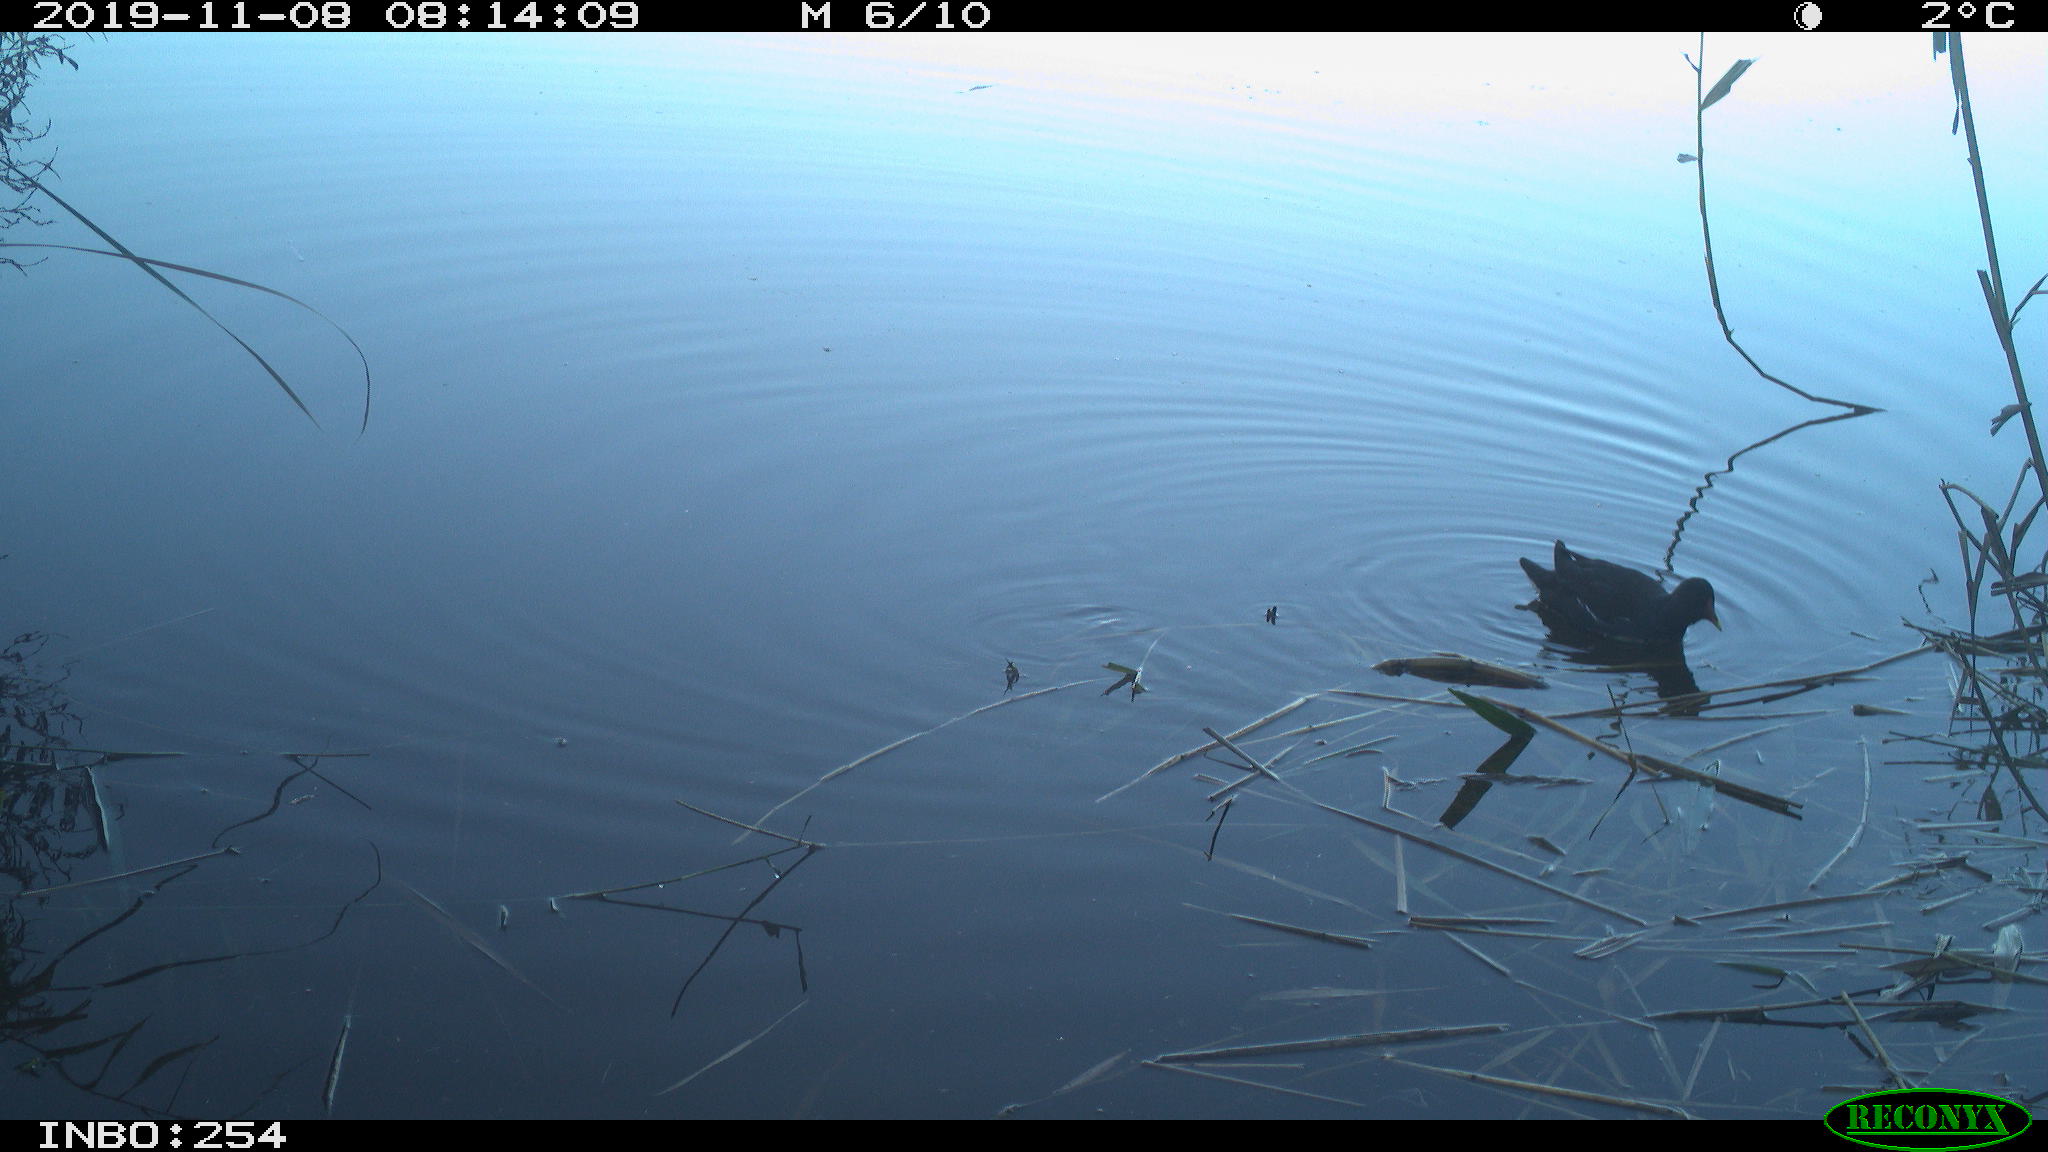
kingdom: Animalia
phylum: Chordata
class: Aves
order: Gruiformes
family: Rallidae
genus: Gallinula
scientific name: Gallinula chloropus
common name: Common moorhen
